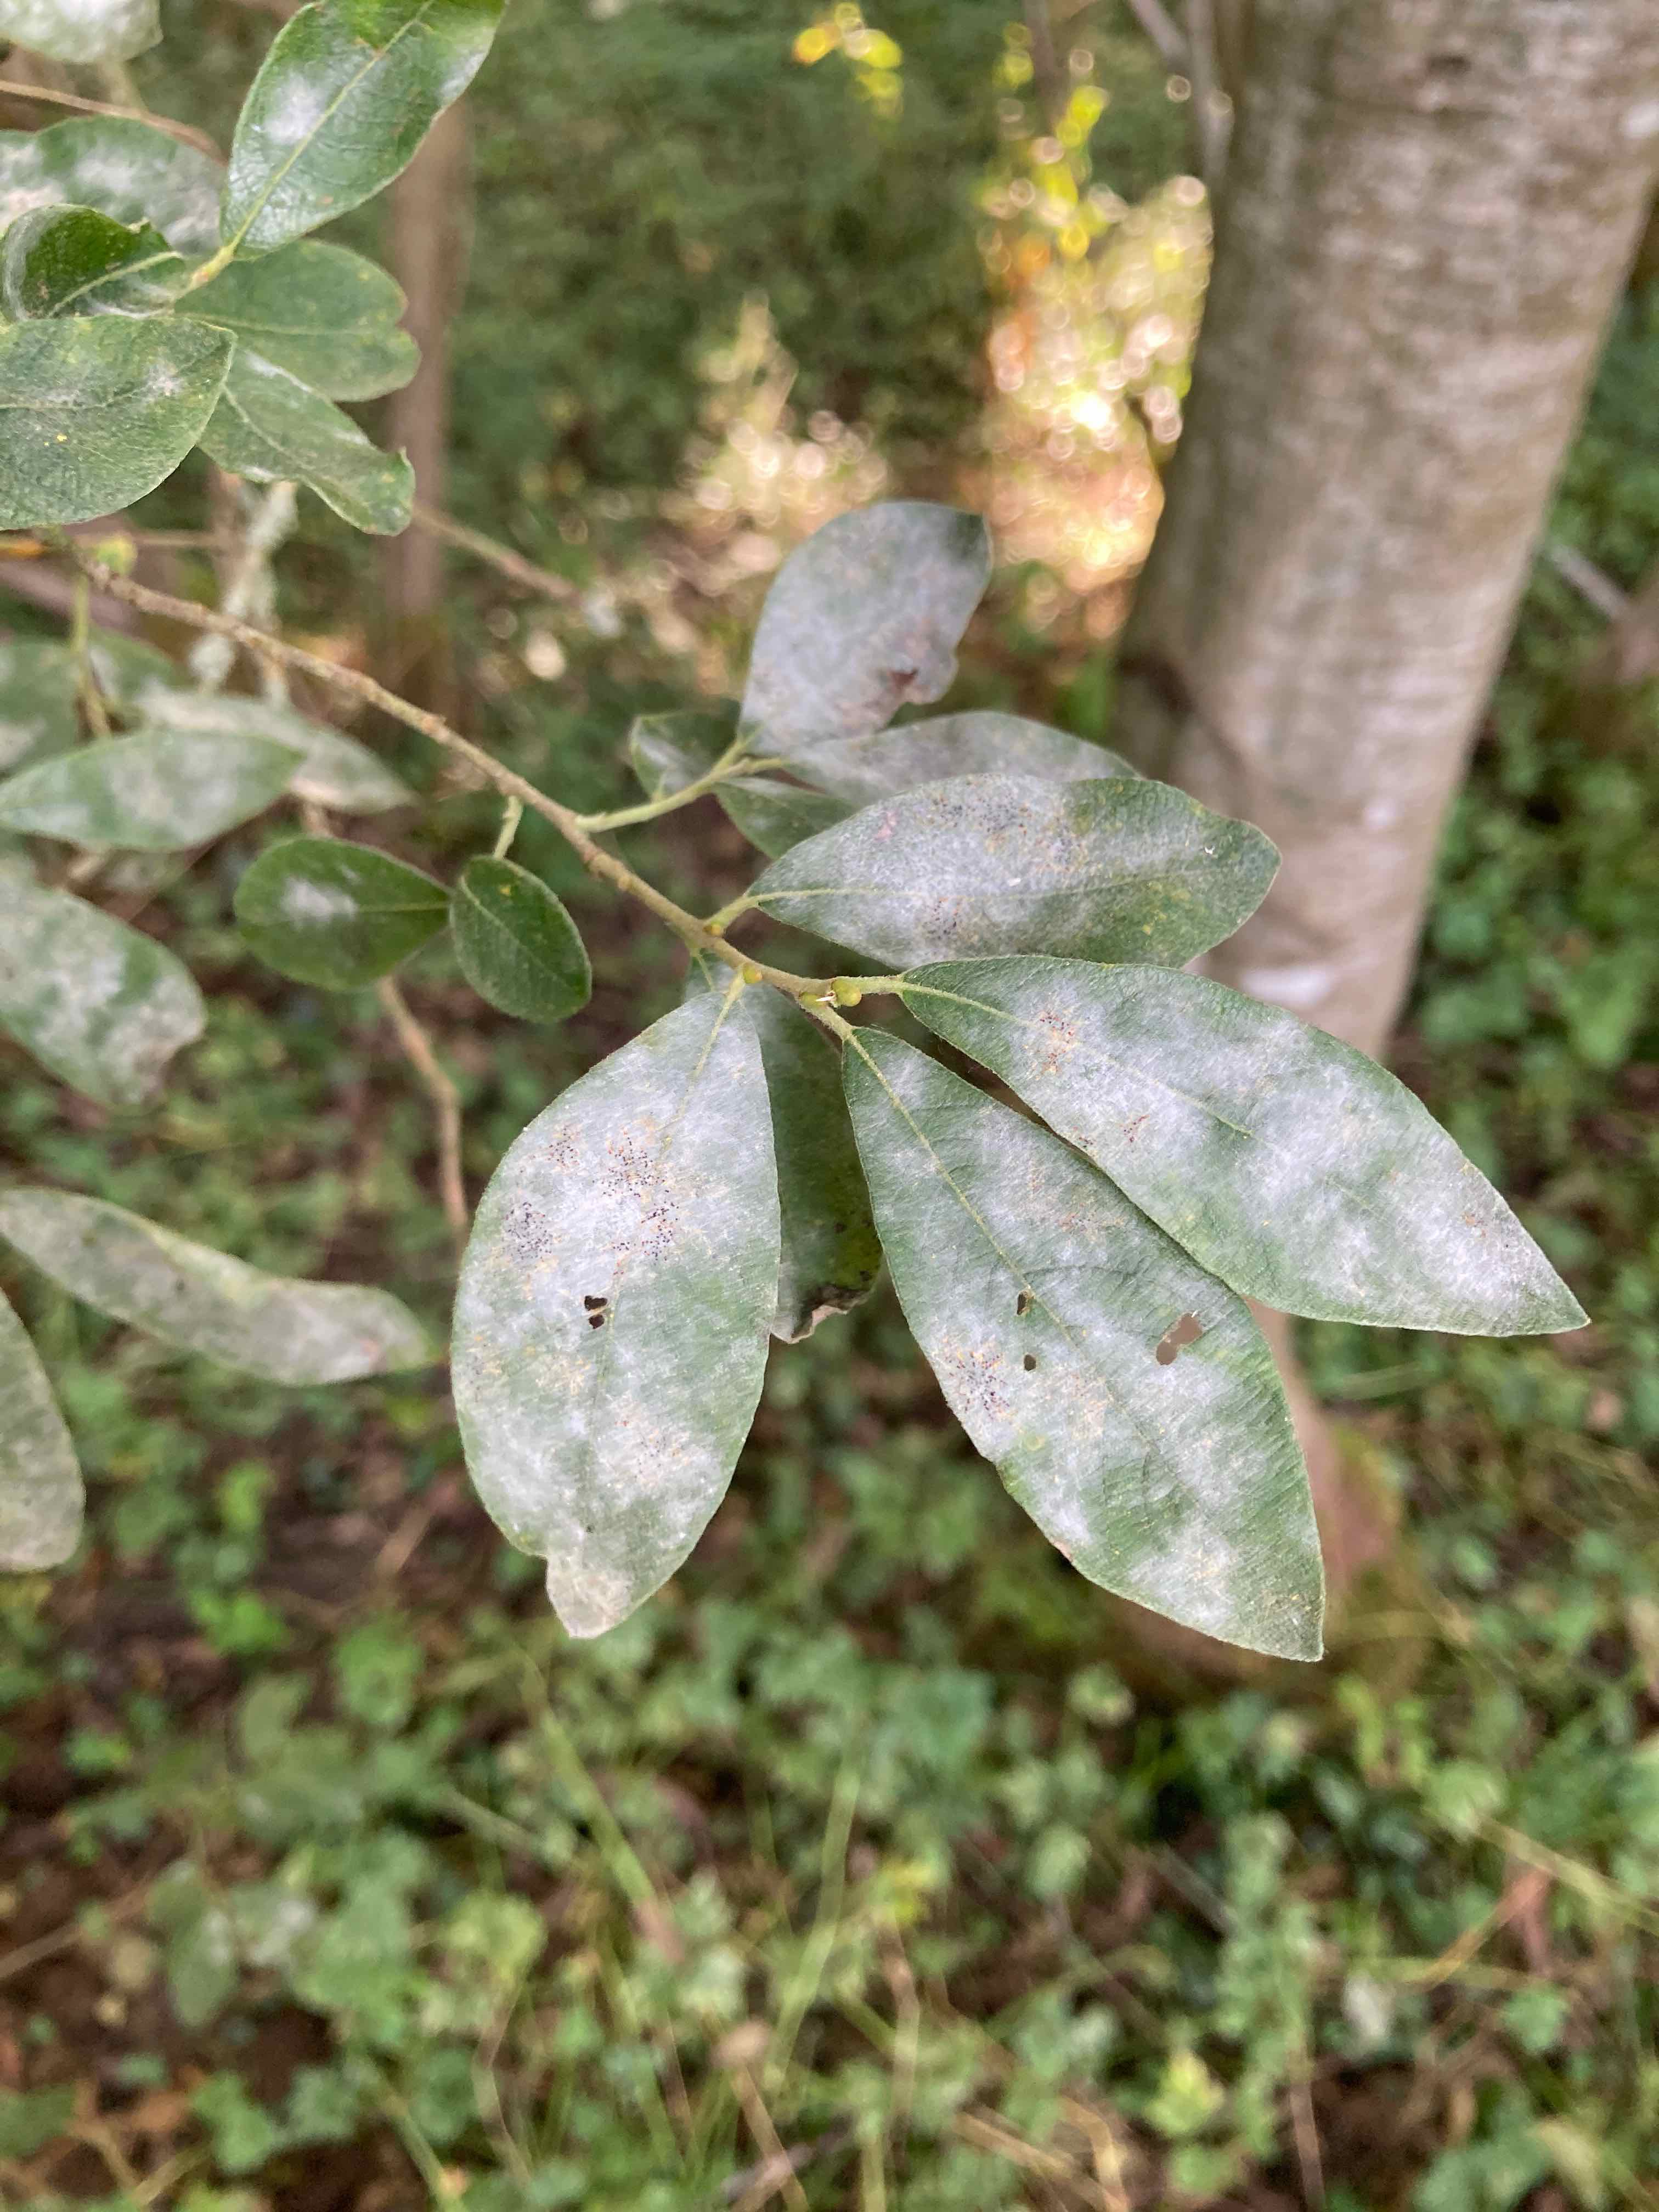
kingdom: Fungi
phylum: Ascomycota
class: Leotiomycetes
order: Helotiales
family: Erysiphaceae
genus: Erysiphe
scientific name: Erysiphe adunca
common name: pile-meldug
